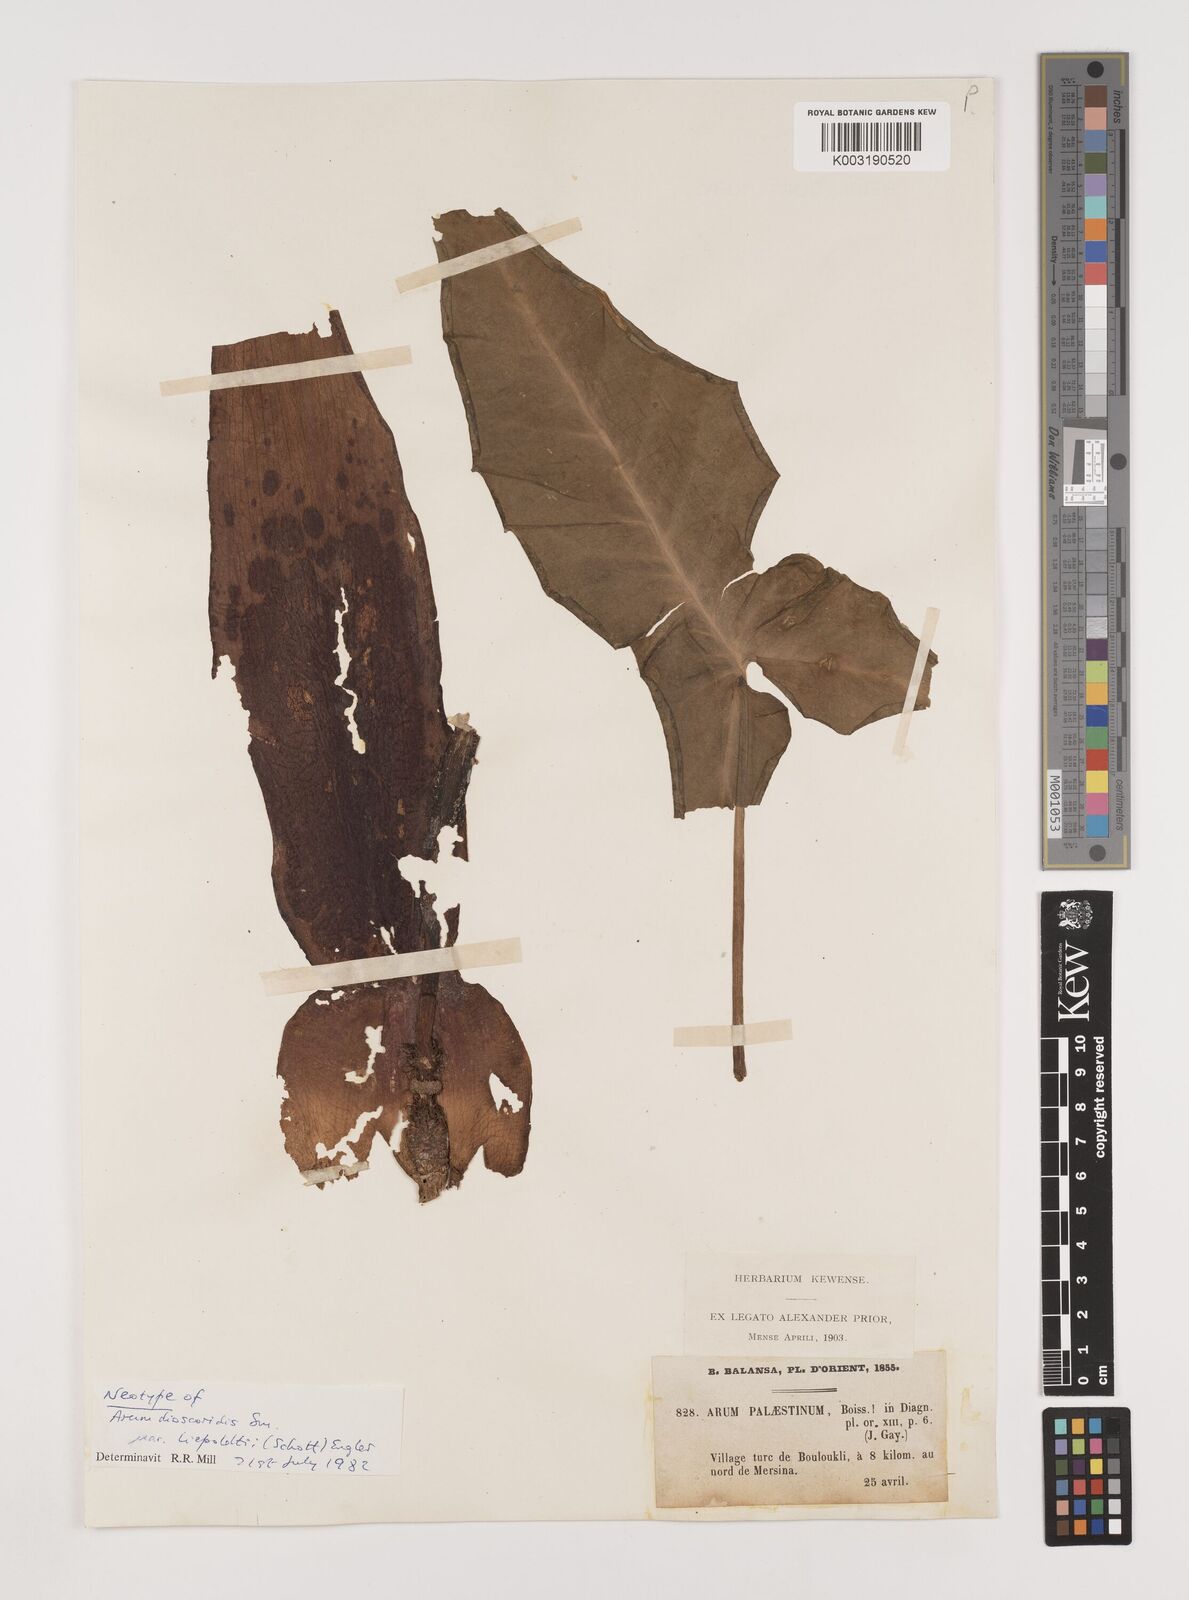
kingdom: Plantae
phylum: Tracheophyta
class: Liliopsida
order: Alismatales
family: Araceae
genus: Arum
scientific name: Arum dioscoridis
